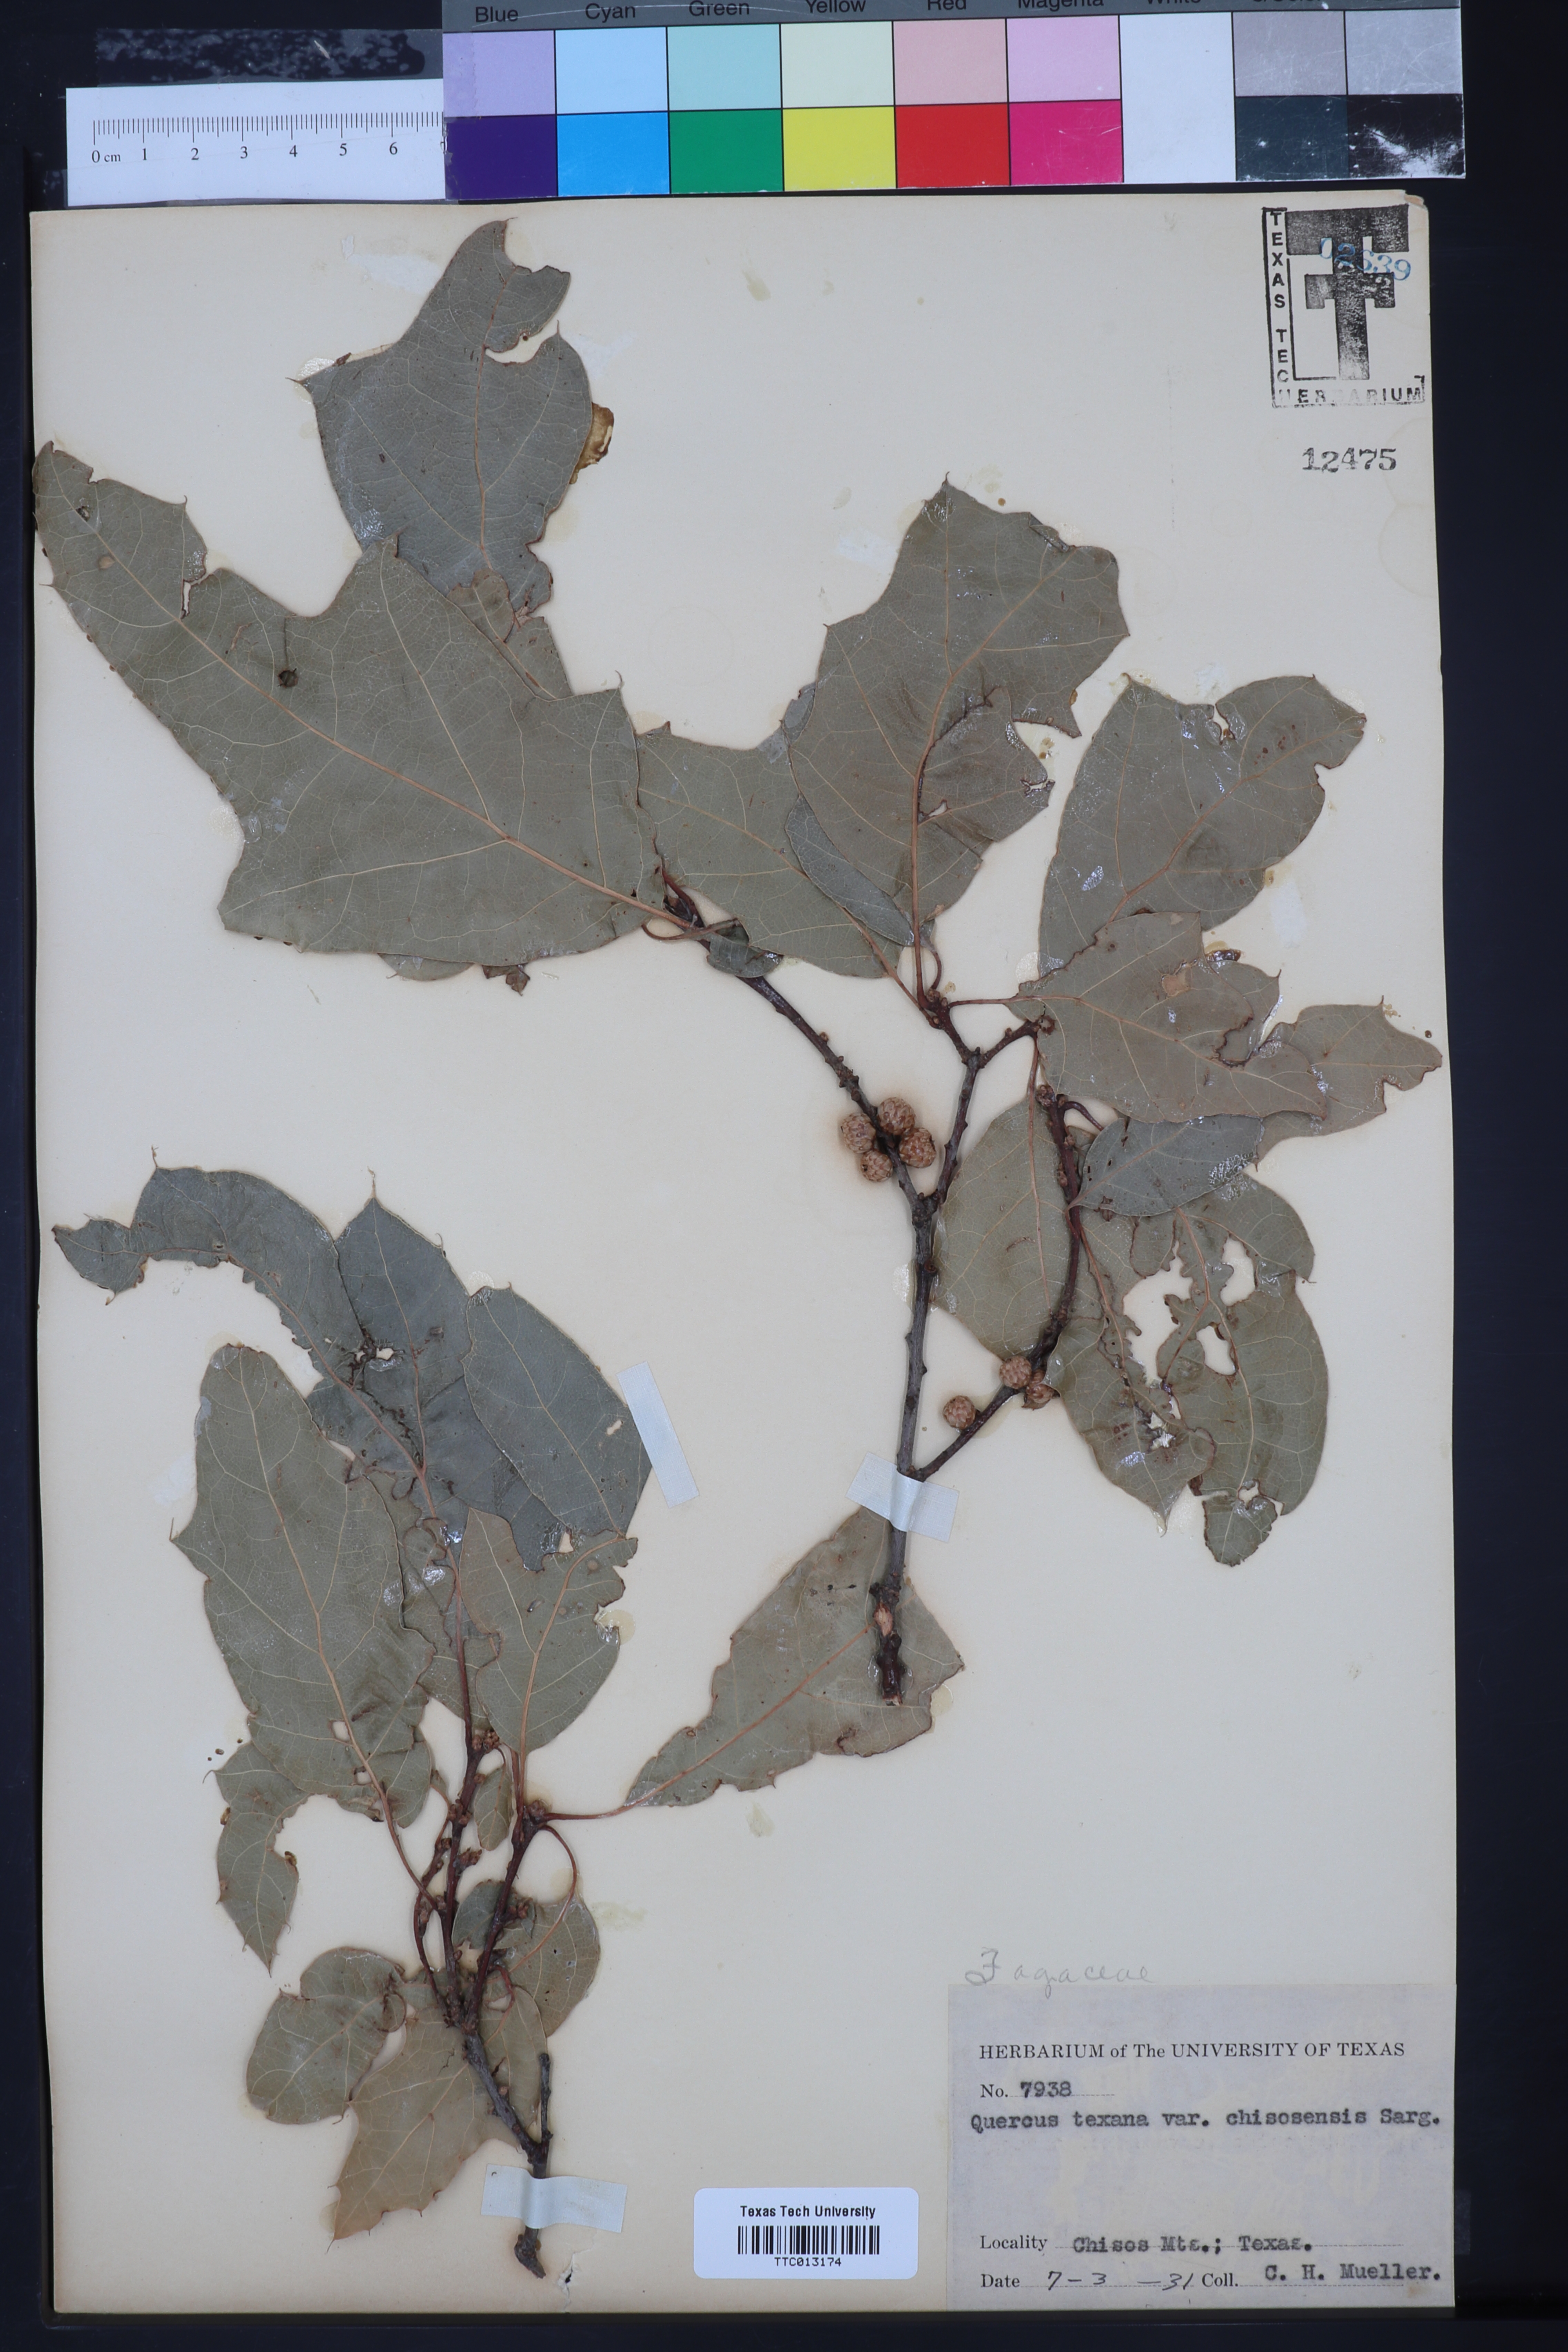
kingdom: Plantae
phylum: Tracheophyta
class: Magnoliopsida
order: Fagales
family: Fagaceae
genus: Quercus
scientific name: Quercus texana
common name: Nuttall oak
